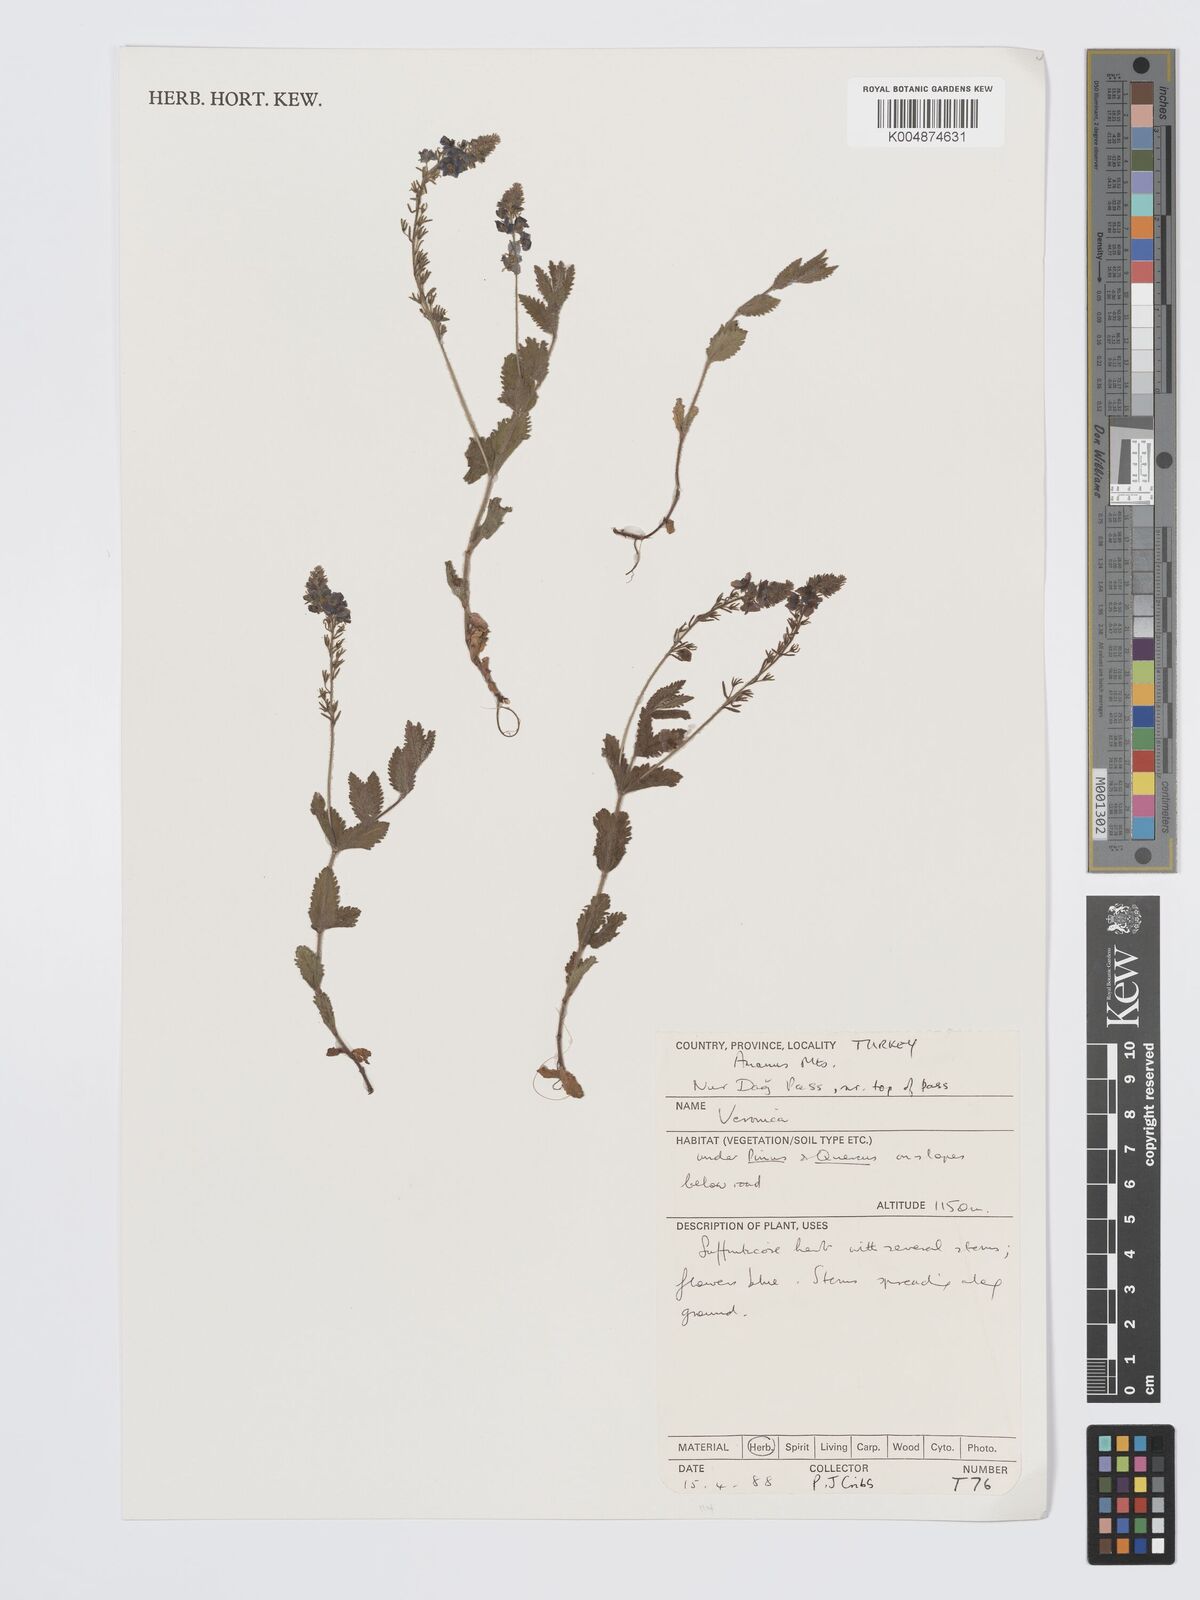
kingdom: Plantae
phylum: Tracheophyta
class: Magnoliopsida
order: Lamiales
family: Plantaginaceae
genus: Veronica
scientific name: Veronica
